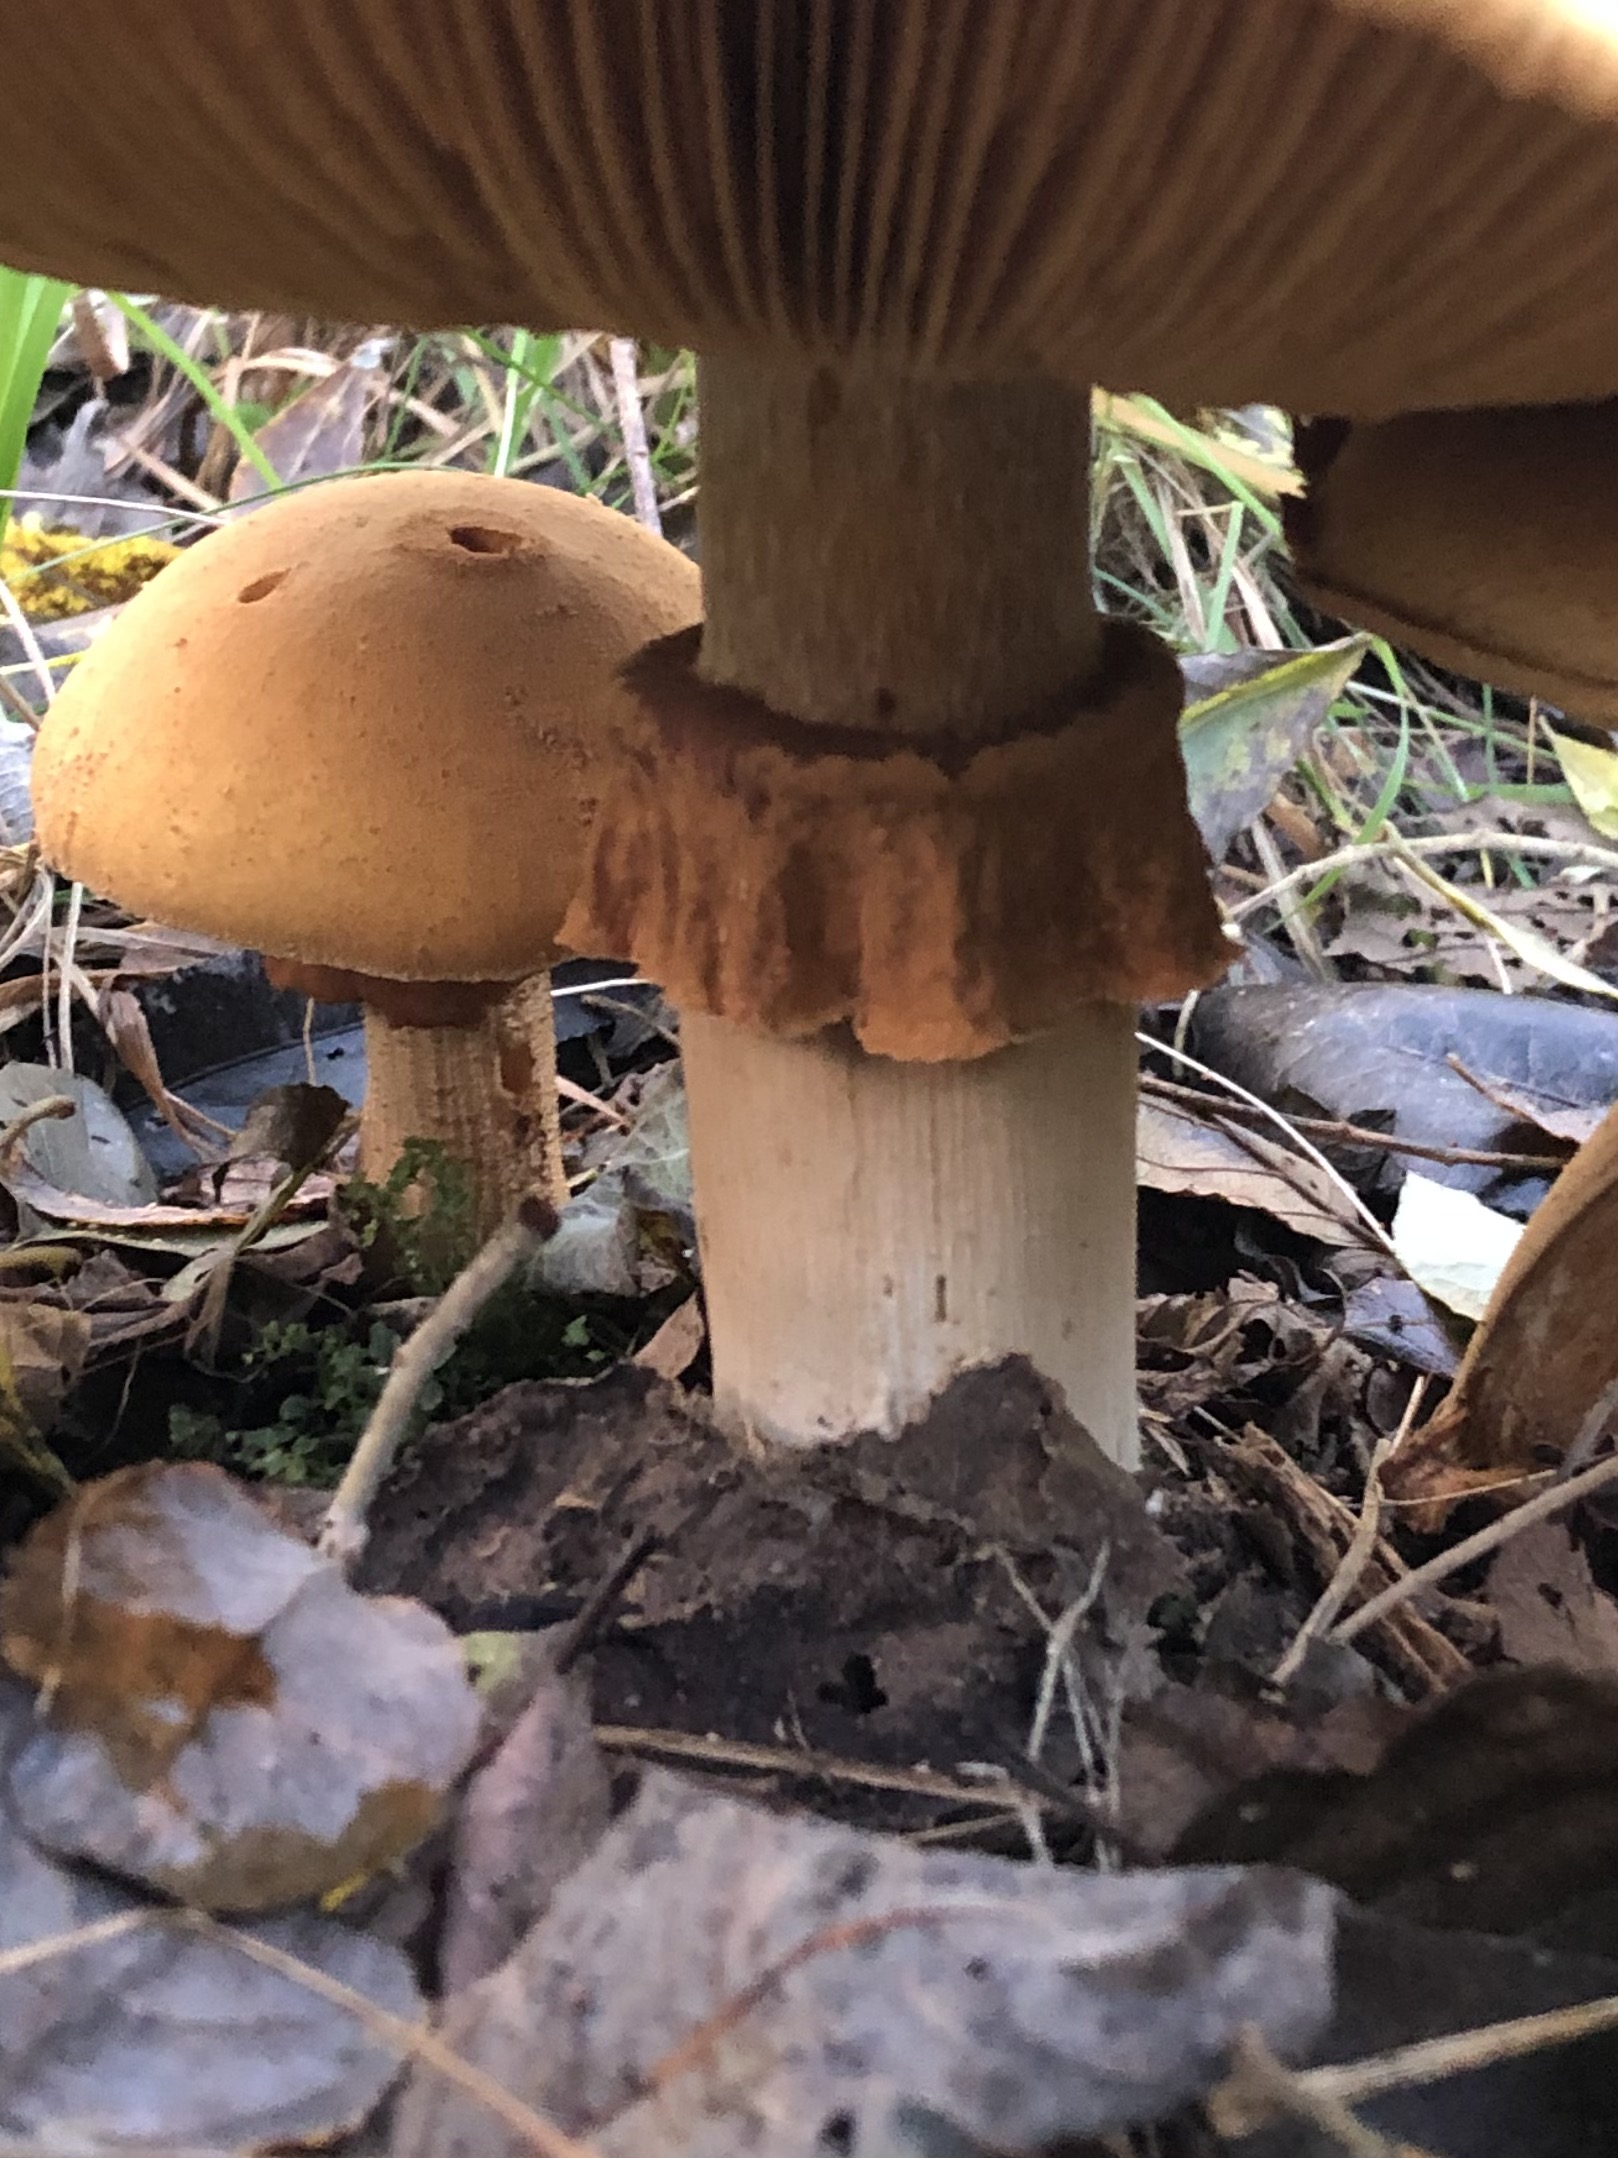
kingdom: Fungi
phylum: Basidiomycota
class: Agaricomycetes
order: Agaricales
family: Tricholomataceae
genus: Phaeolepiota
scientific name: Phaeolepiota aurea
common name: gyldenhat
